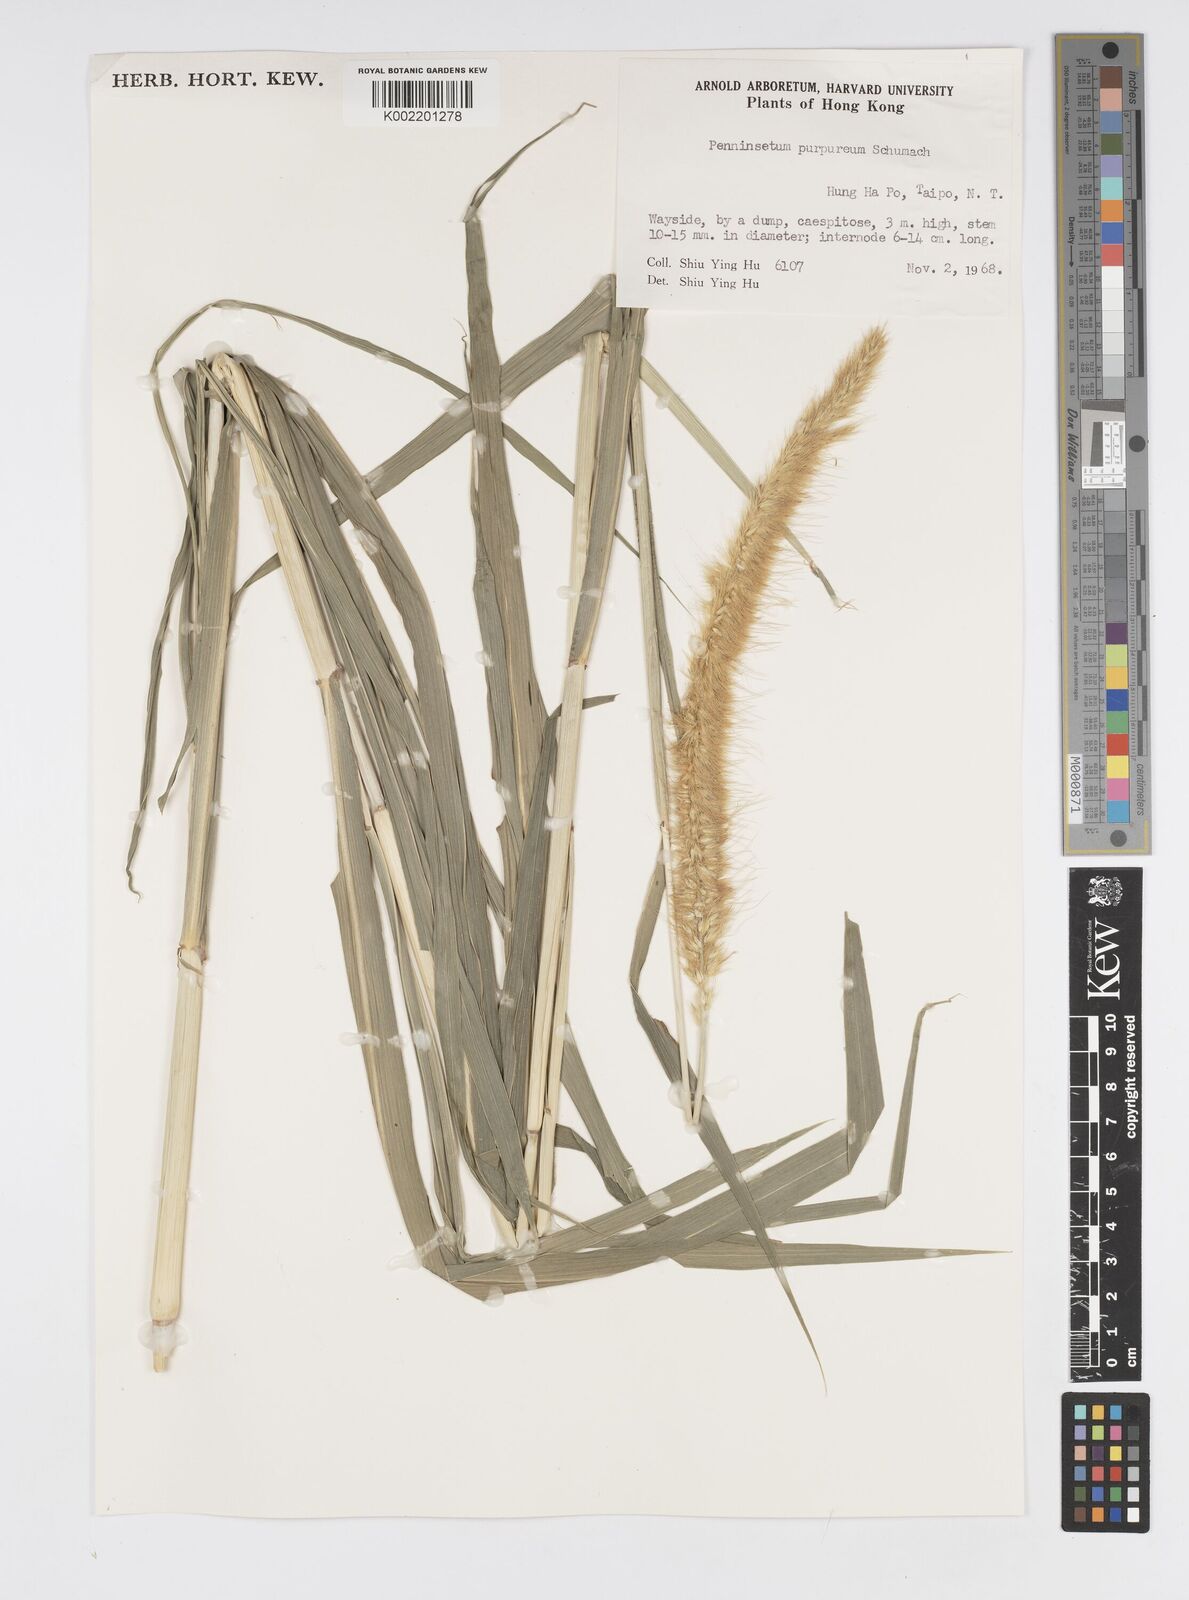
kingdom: Plantae
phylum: Tracheophyta
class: Liliopsida
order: Poales
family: Poaceae
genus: Cenchrus
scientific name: Cenchrus purpureus
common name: Elephant grass
